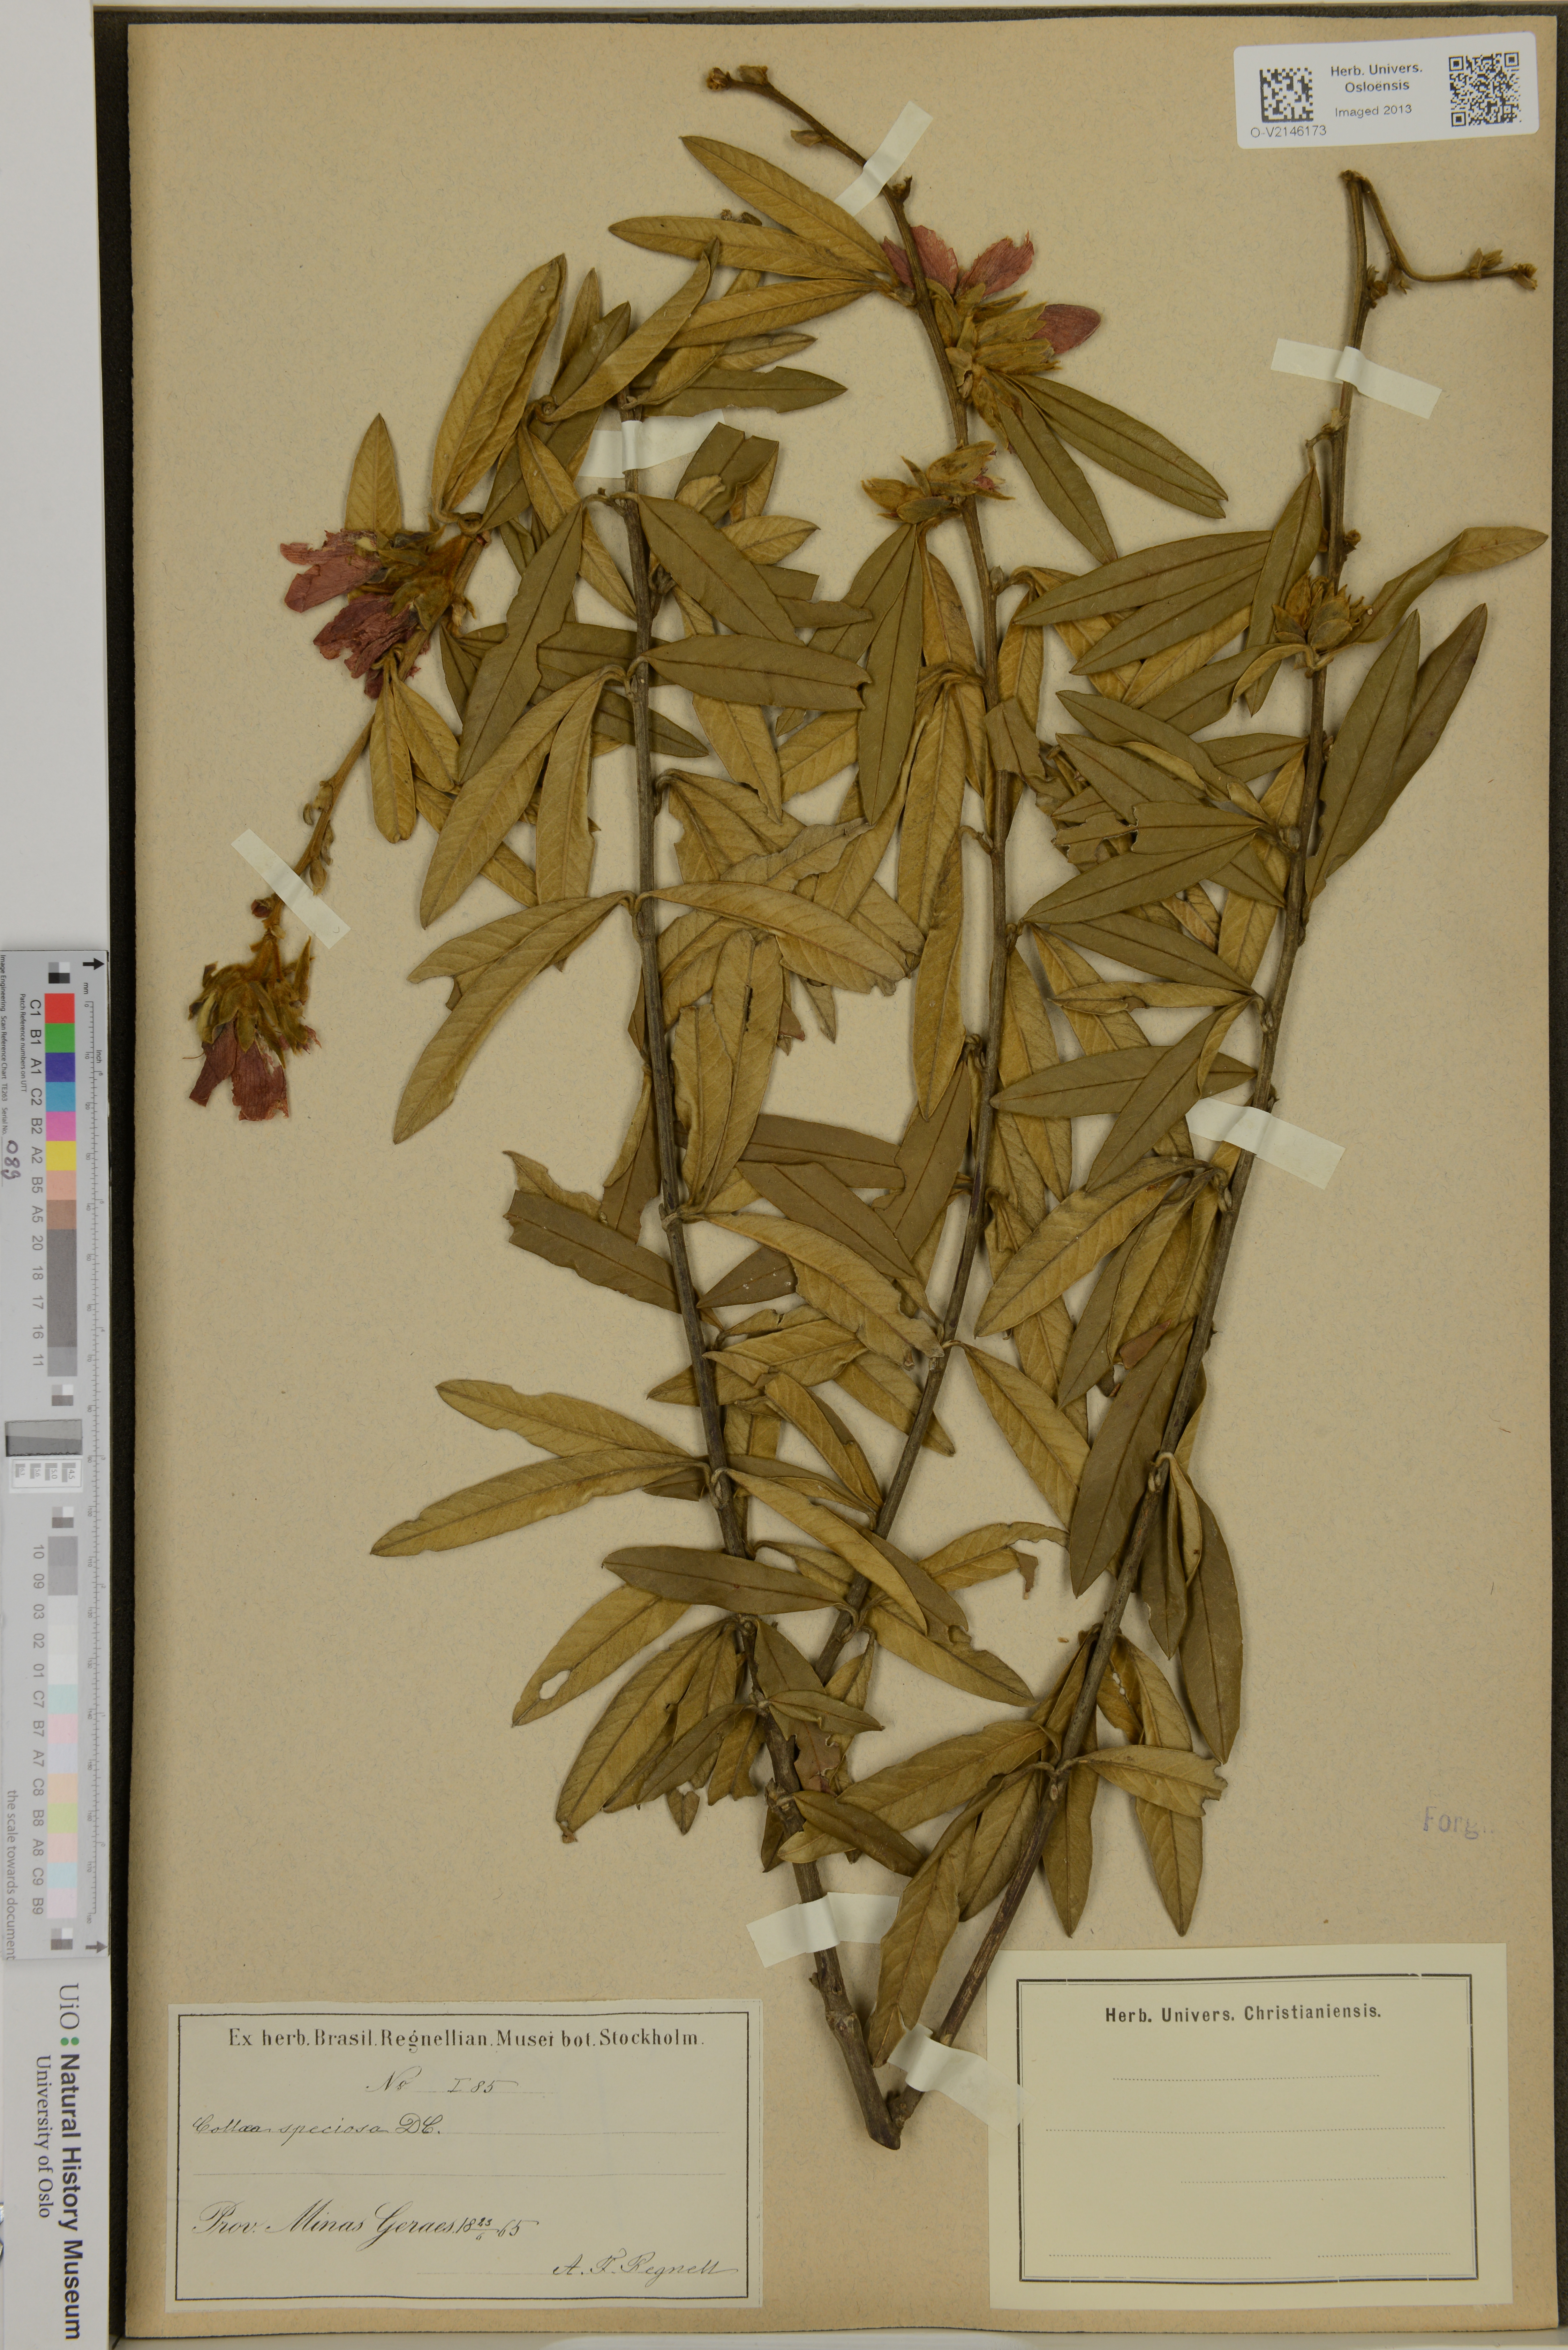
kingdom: Plantae
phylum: Tracheophyta
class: Magnoliopsida
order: Fabales
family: Fabaceae
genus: Collaea
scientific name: Collaea speciosa
